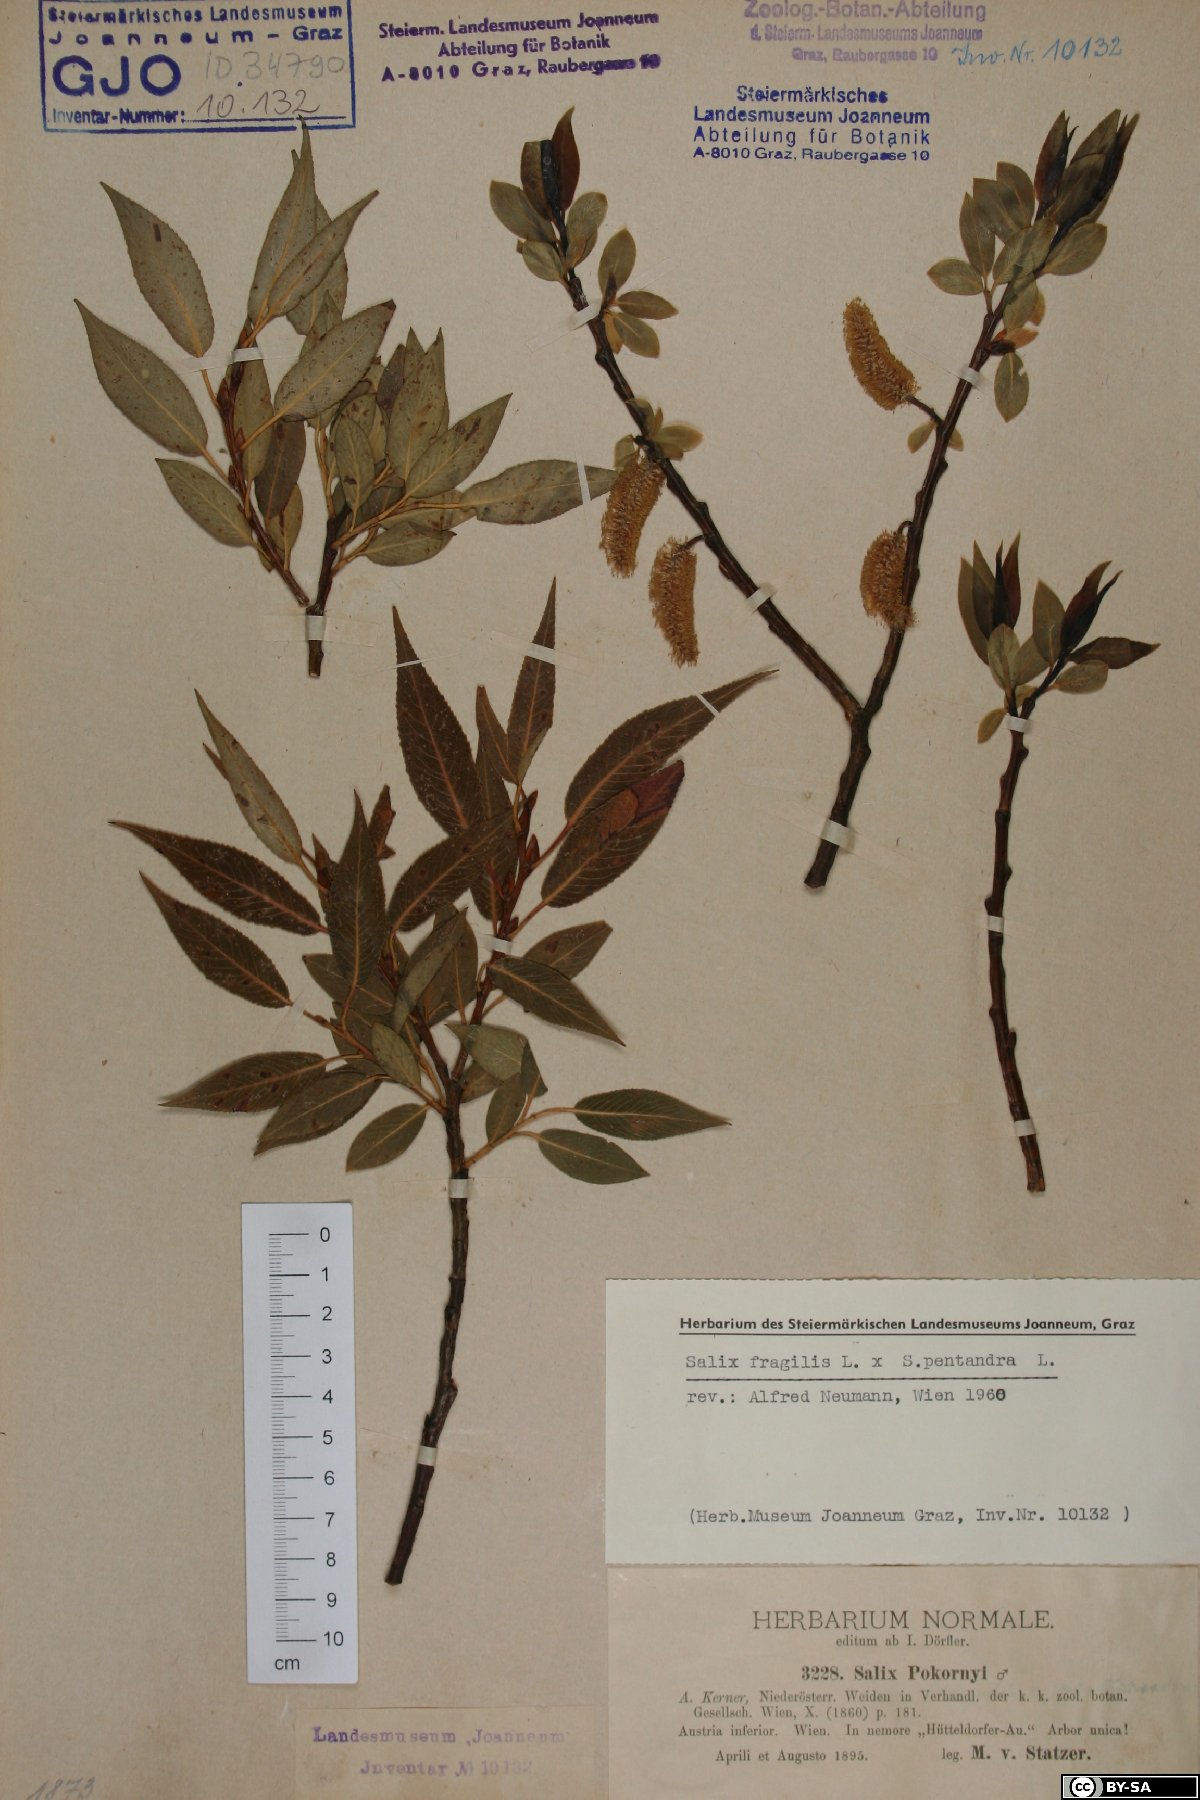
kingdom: Plantae
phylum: Tracheophyta
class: Magnoliopsida
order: Malpighiales
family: Salicaceae
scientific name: Salicaceae
